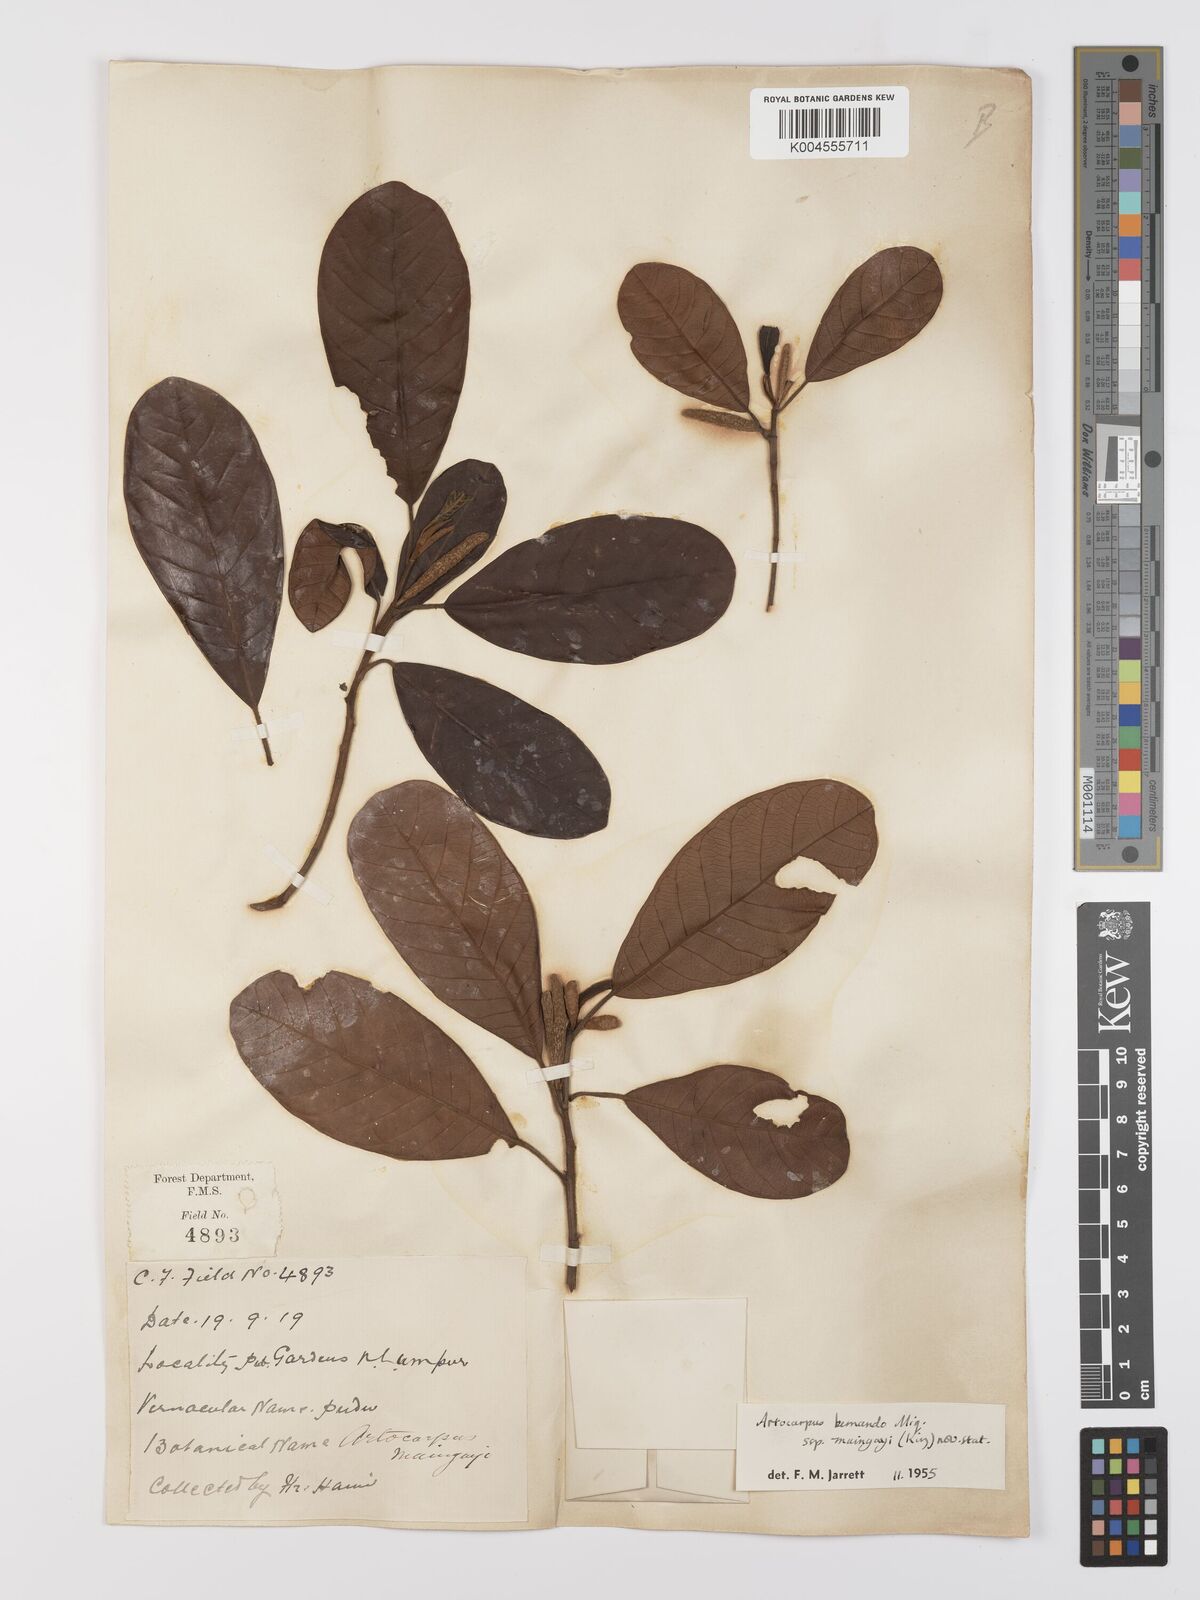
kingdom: Plantae
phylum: Tracheophyta
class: Magnoliopsida
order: Rosales
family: Moraceae
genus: Artocarpus
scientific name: Artocarpus kemando
